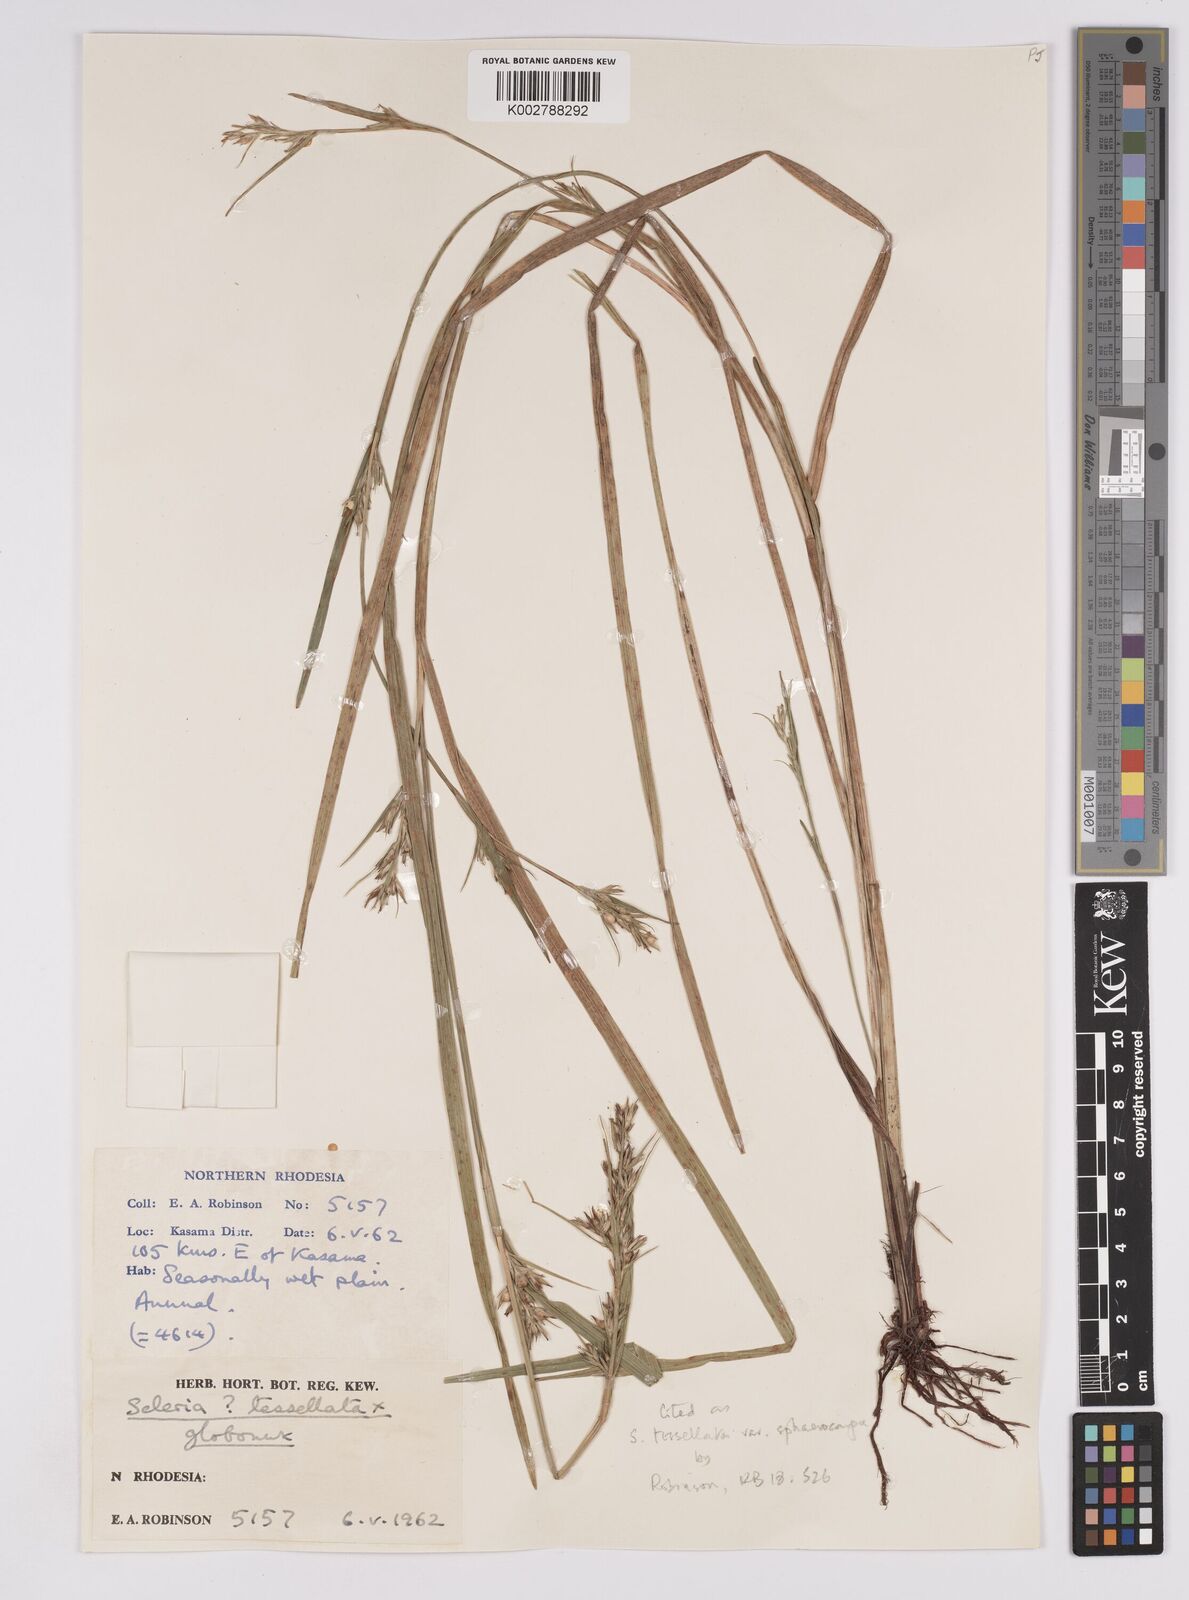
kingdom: Plantae
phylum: Tracheophyta
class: Liliopsida
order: Poales
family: Cyperaceae
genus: Scleria
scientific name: Scleria
